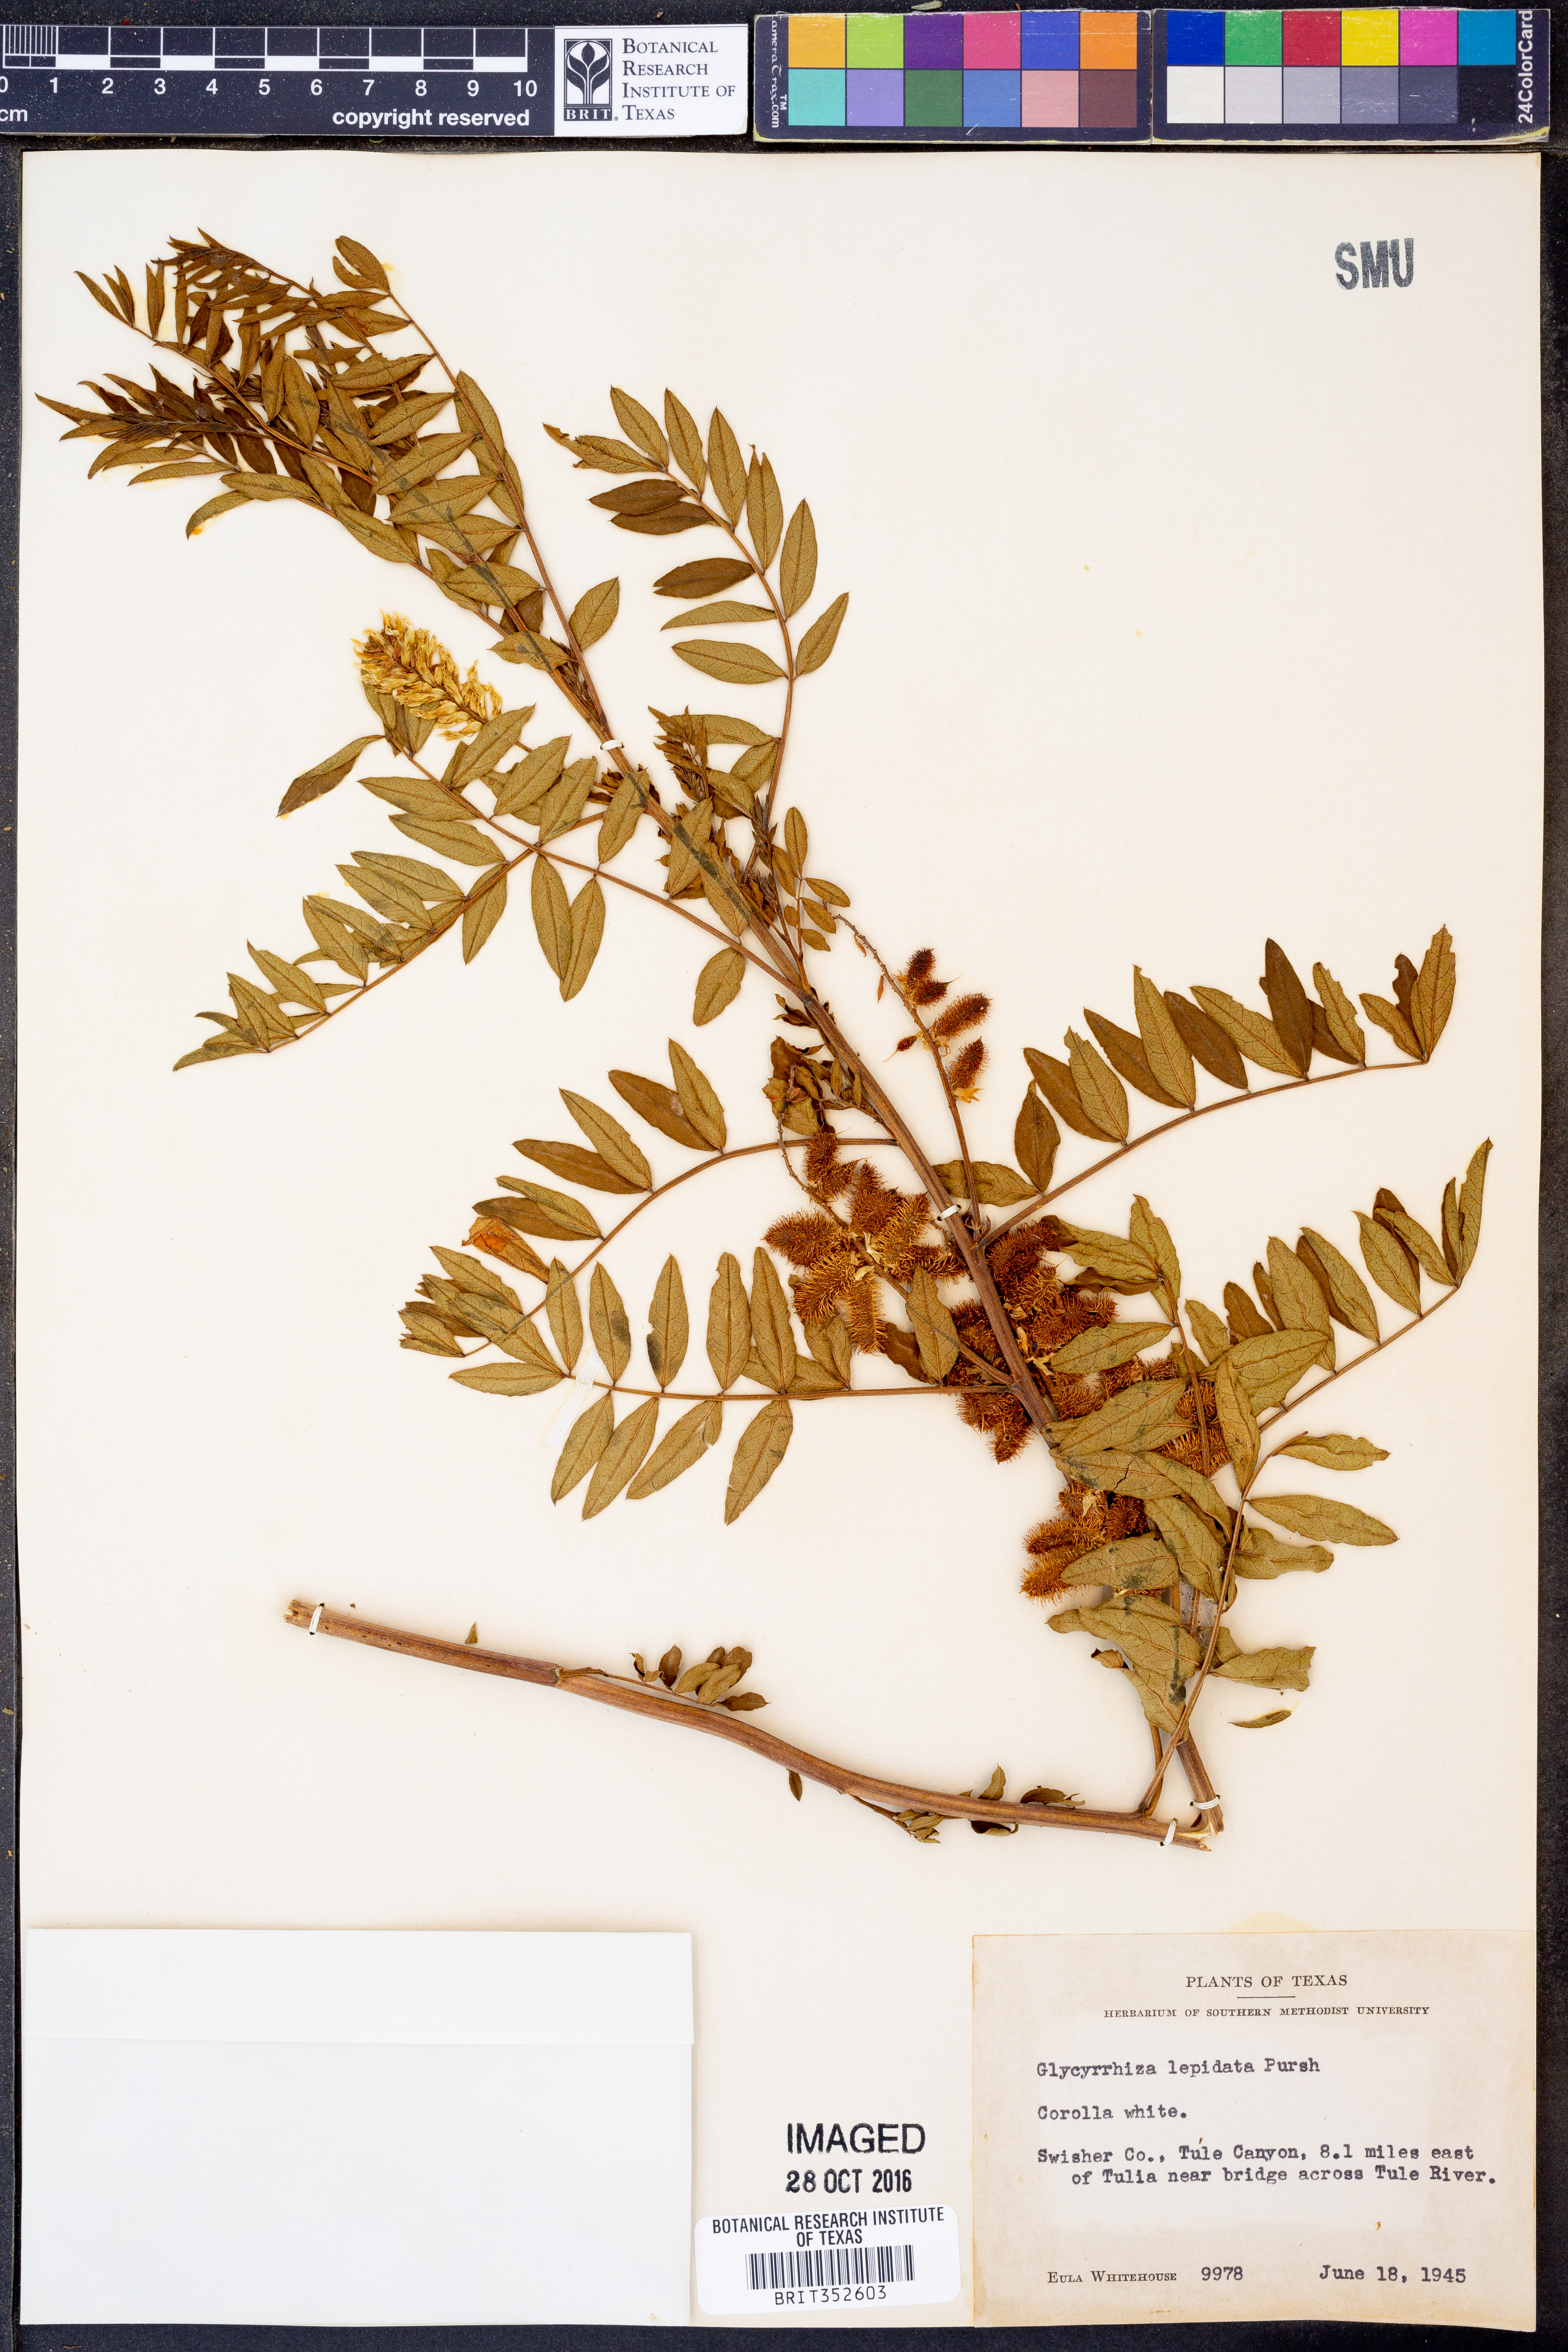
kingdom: Plantae
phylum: Tracheophyta
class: Magnoliopsida
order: Fabales
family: Fabaceae
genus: Glycyrrhiza
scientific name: Glycyrrhiza lepidota
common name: American liquorice
